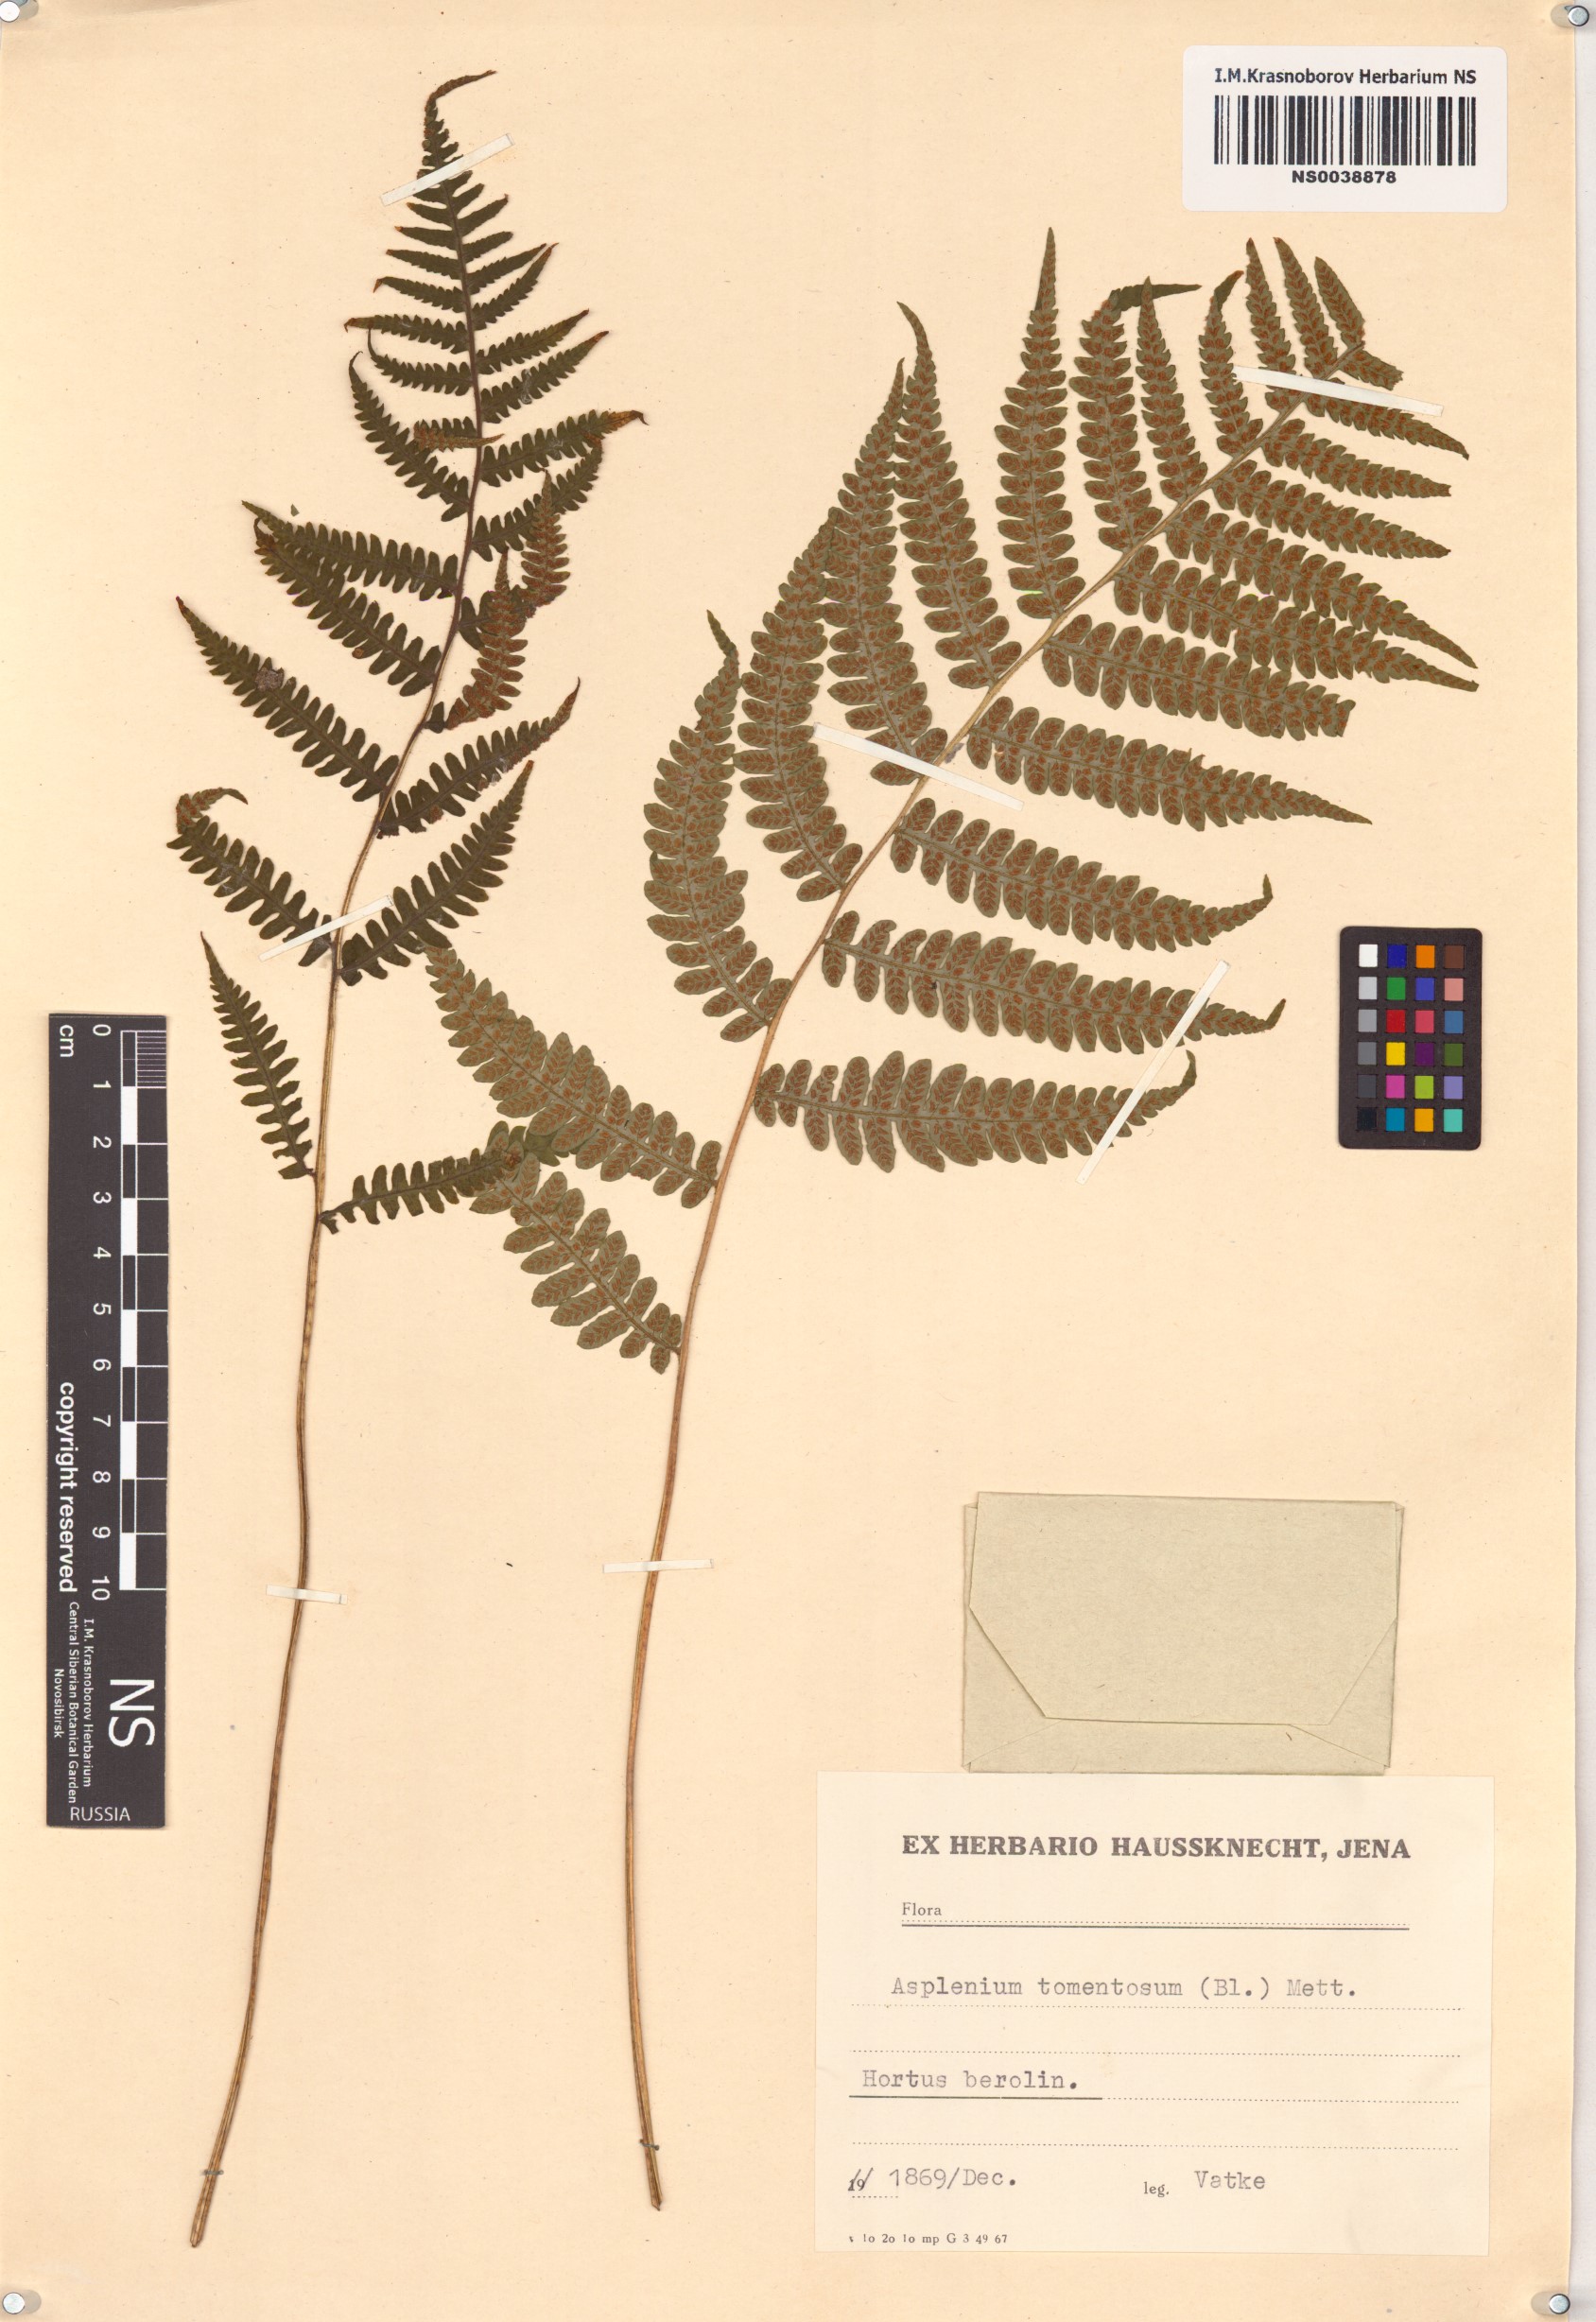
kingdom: Plantae
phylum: Tracheophyta
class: Polypodiopsida
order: Polypodiales
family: Athyriaceae
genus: Deparia
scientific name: Deparia petersenii
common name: Japanese false spleenwort
